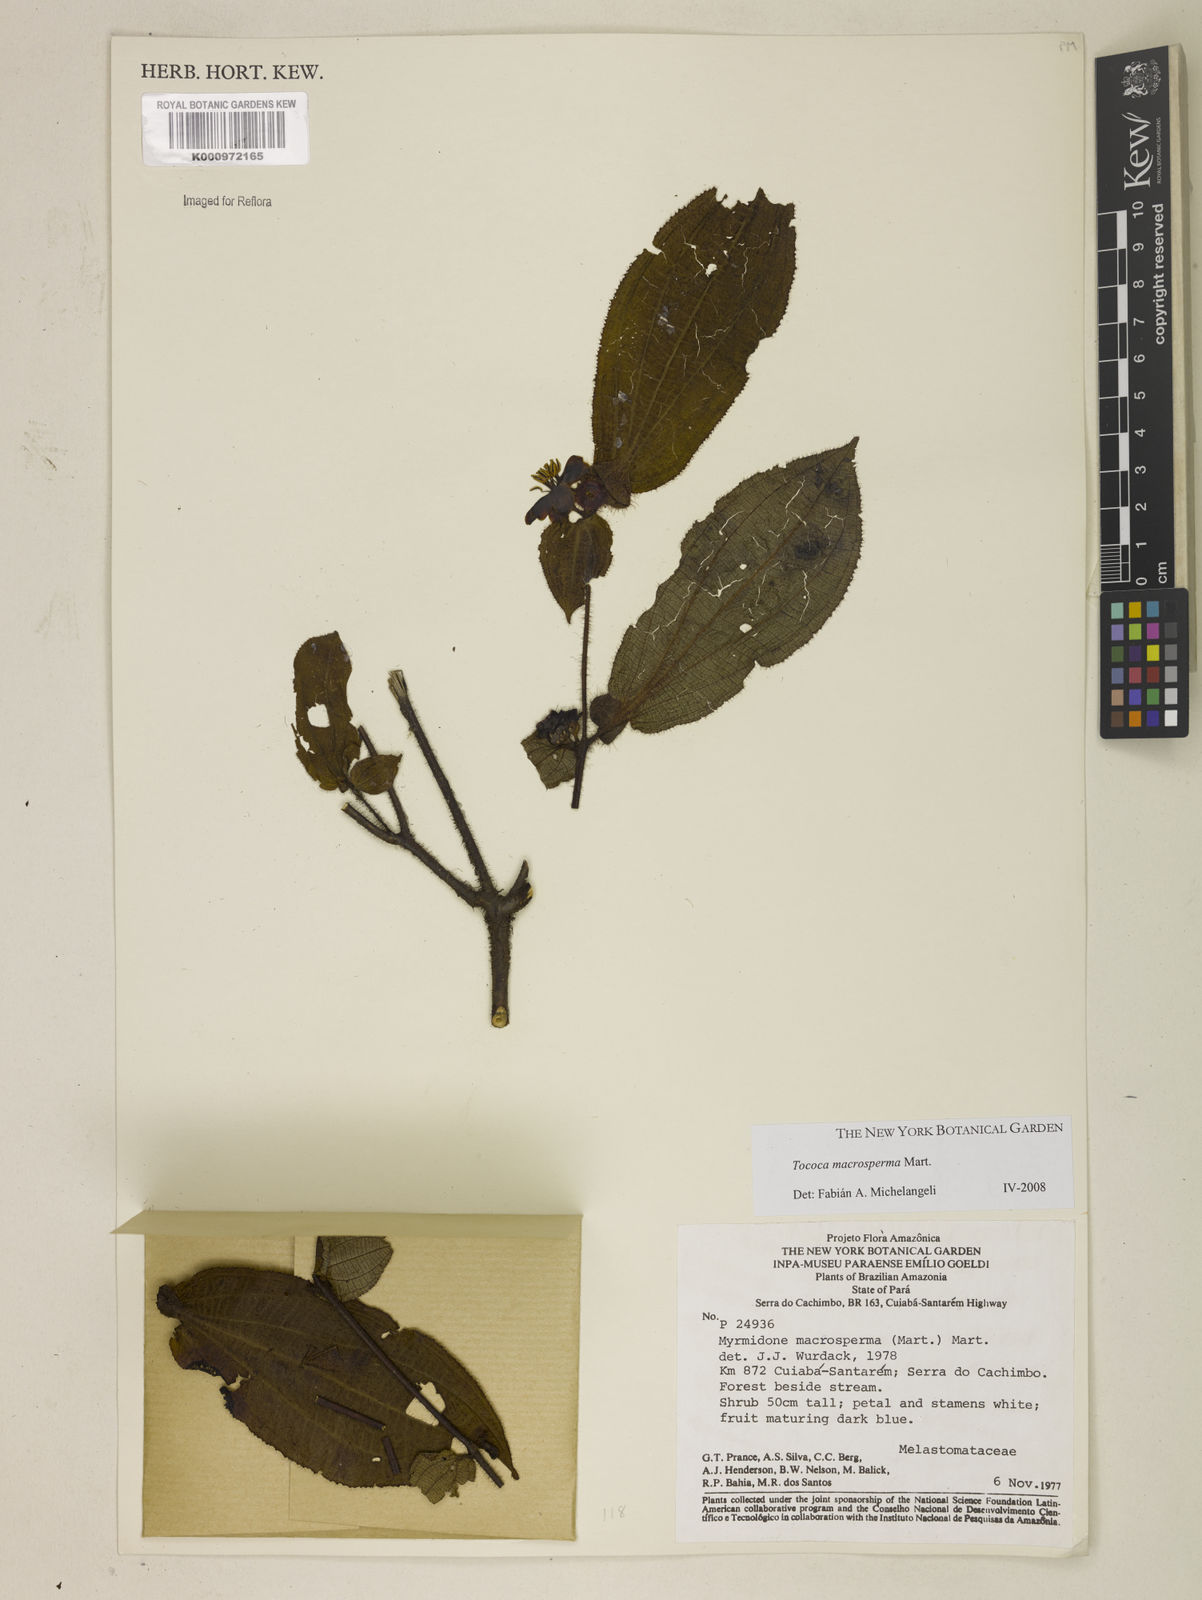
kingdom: Plantae
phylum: Tracheophyta
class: Magnoliopsida
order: Myrtales
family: Melastomataceae
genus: Miconia
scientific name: Miconia macrosperma
